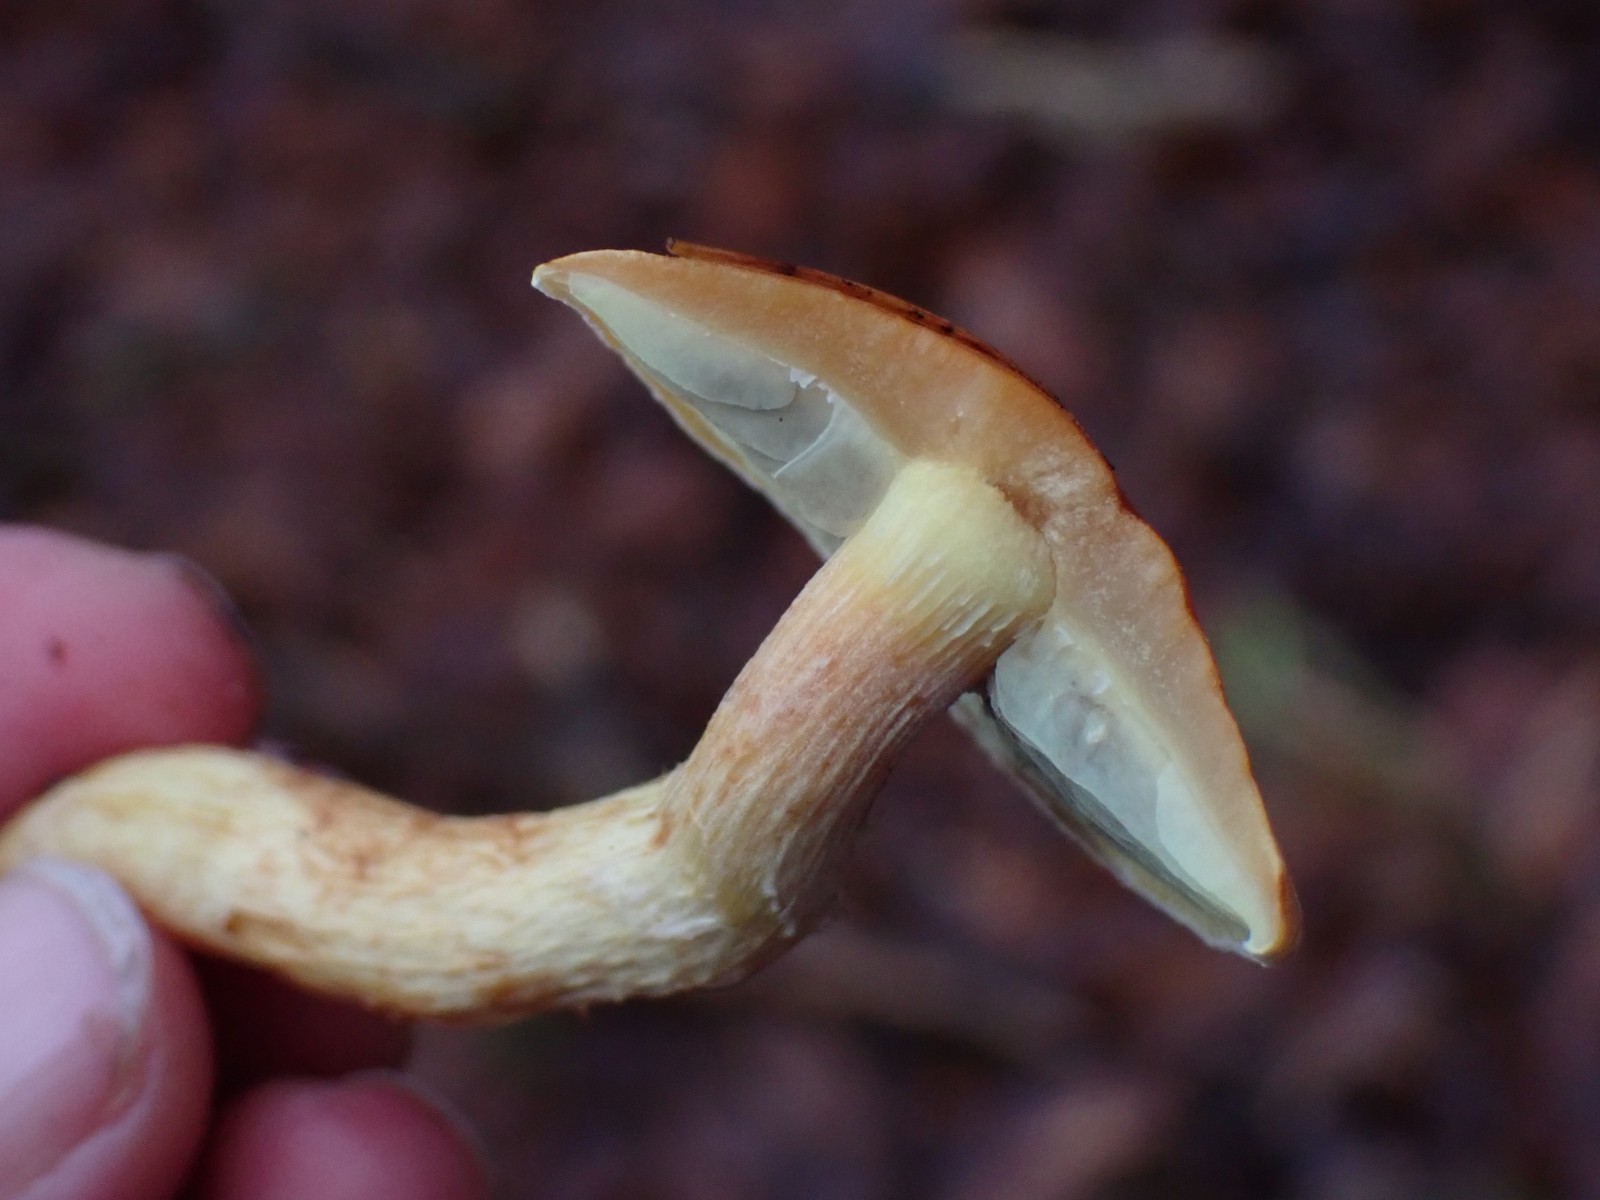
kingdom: Fungi
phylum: Basidiomycota
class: Agaricomycetes
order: Agaricales
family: Strophariaceae
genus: Hypholoma
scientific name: Hypholoma lateritium
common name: teglrød svovlhat
